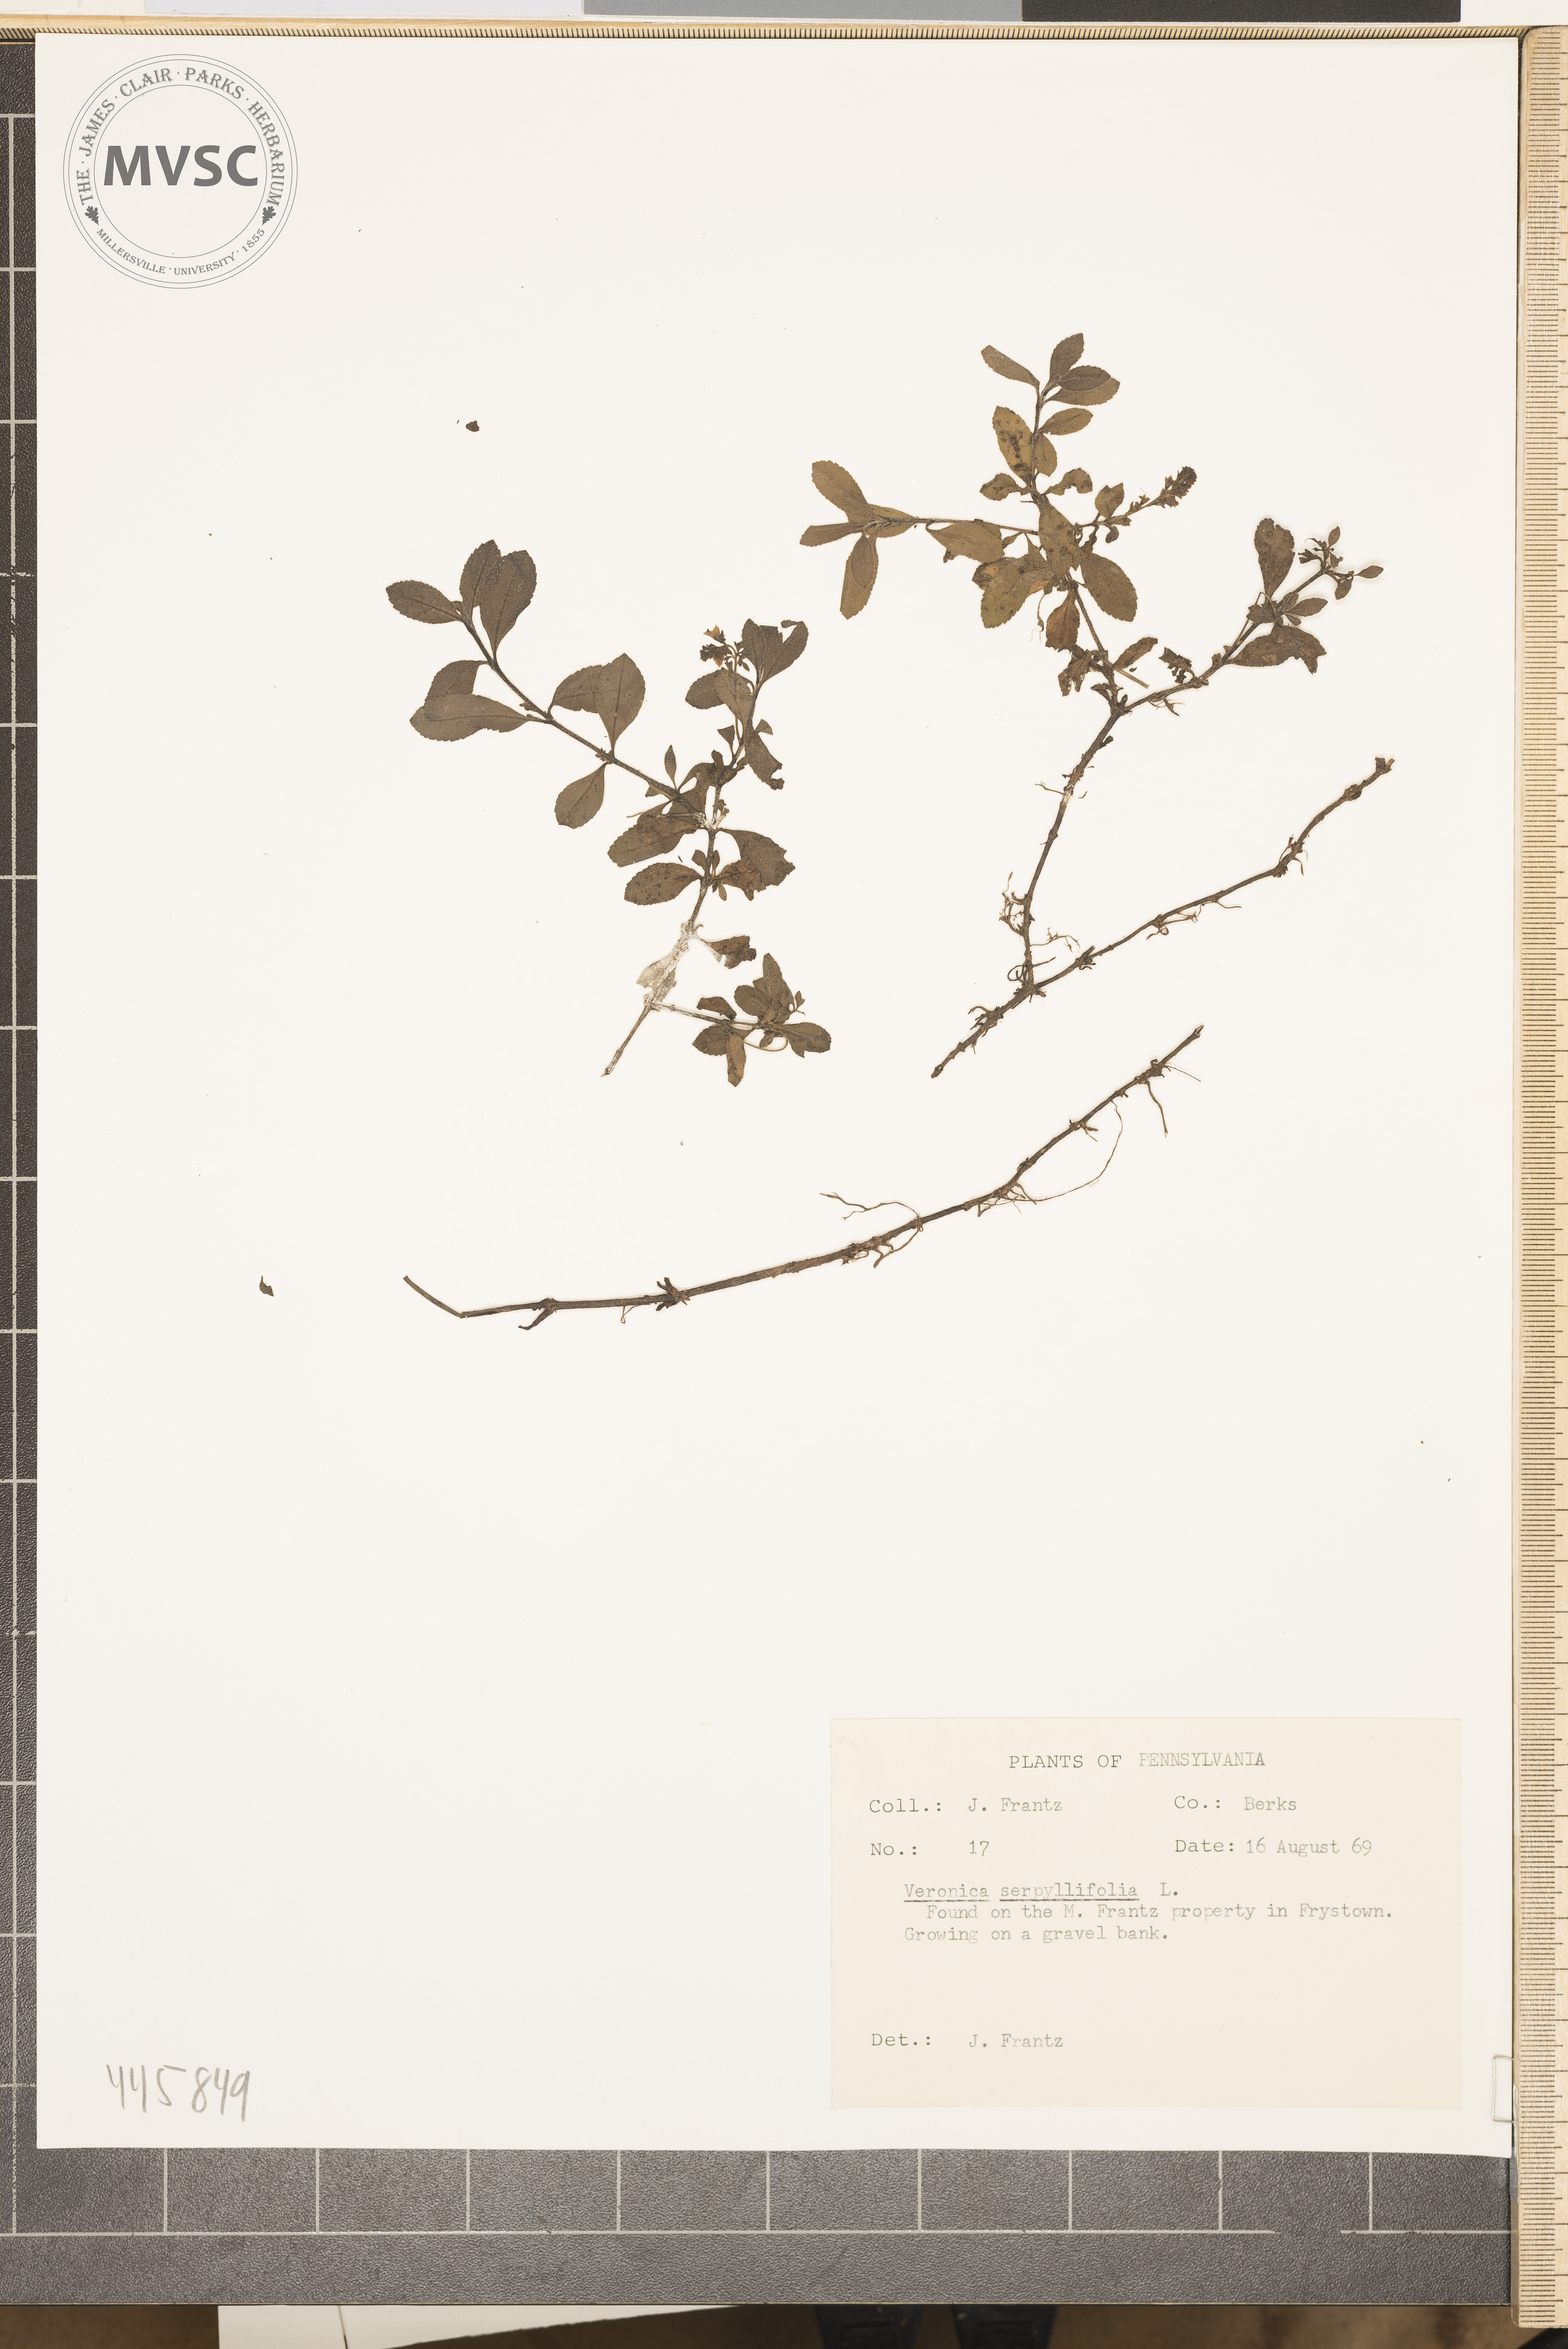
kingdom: Plantae
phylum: Tracheophyta
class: Magnoliopsida
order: Lamiales
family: Plantaginaceae
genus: Veronica
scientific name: Veronica serpyllifolia
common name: Thyme-leaved speedwell
